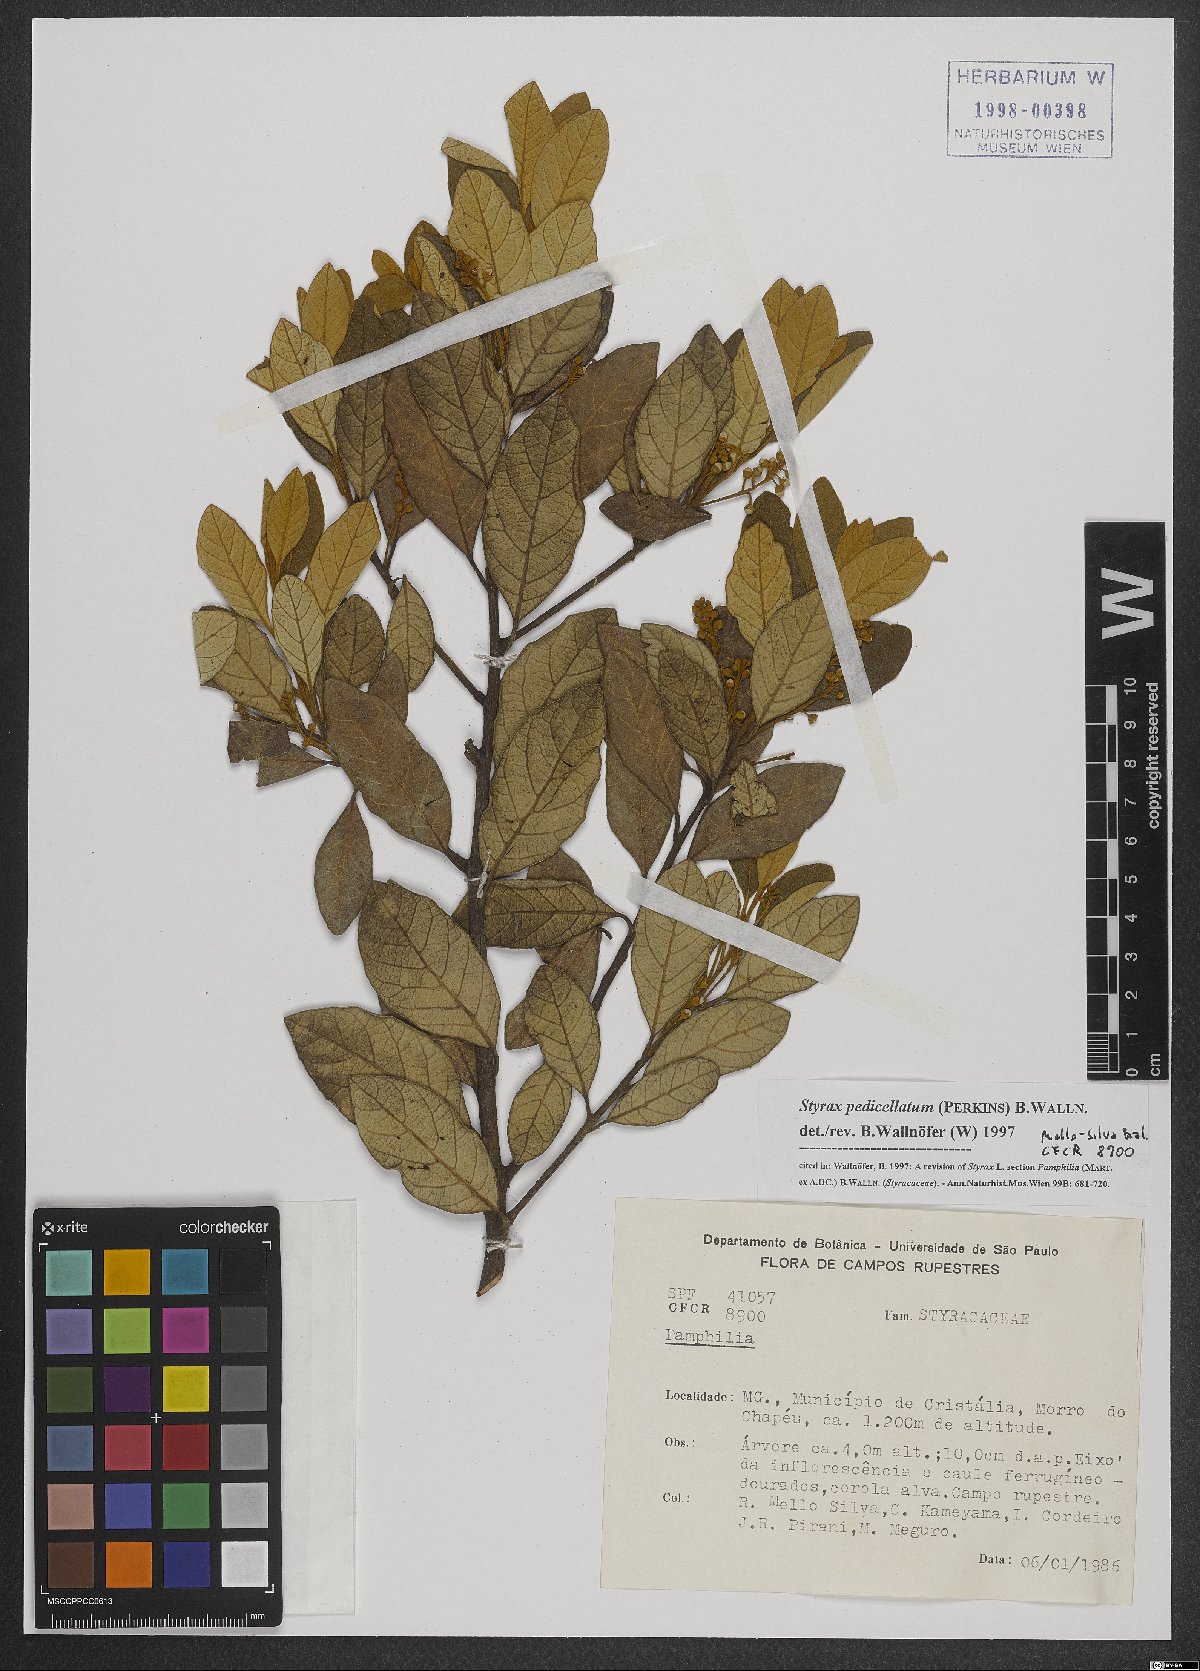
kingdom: Plantae
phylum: Tracheophyta
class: Magnoliopsida
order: Ericales
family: Styracaceae
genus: Styrax
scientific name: Styrax pedicellatus
